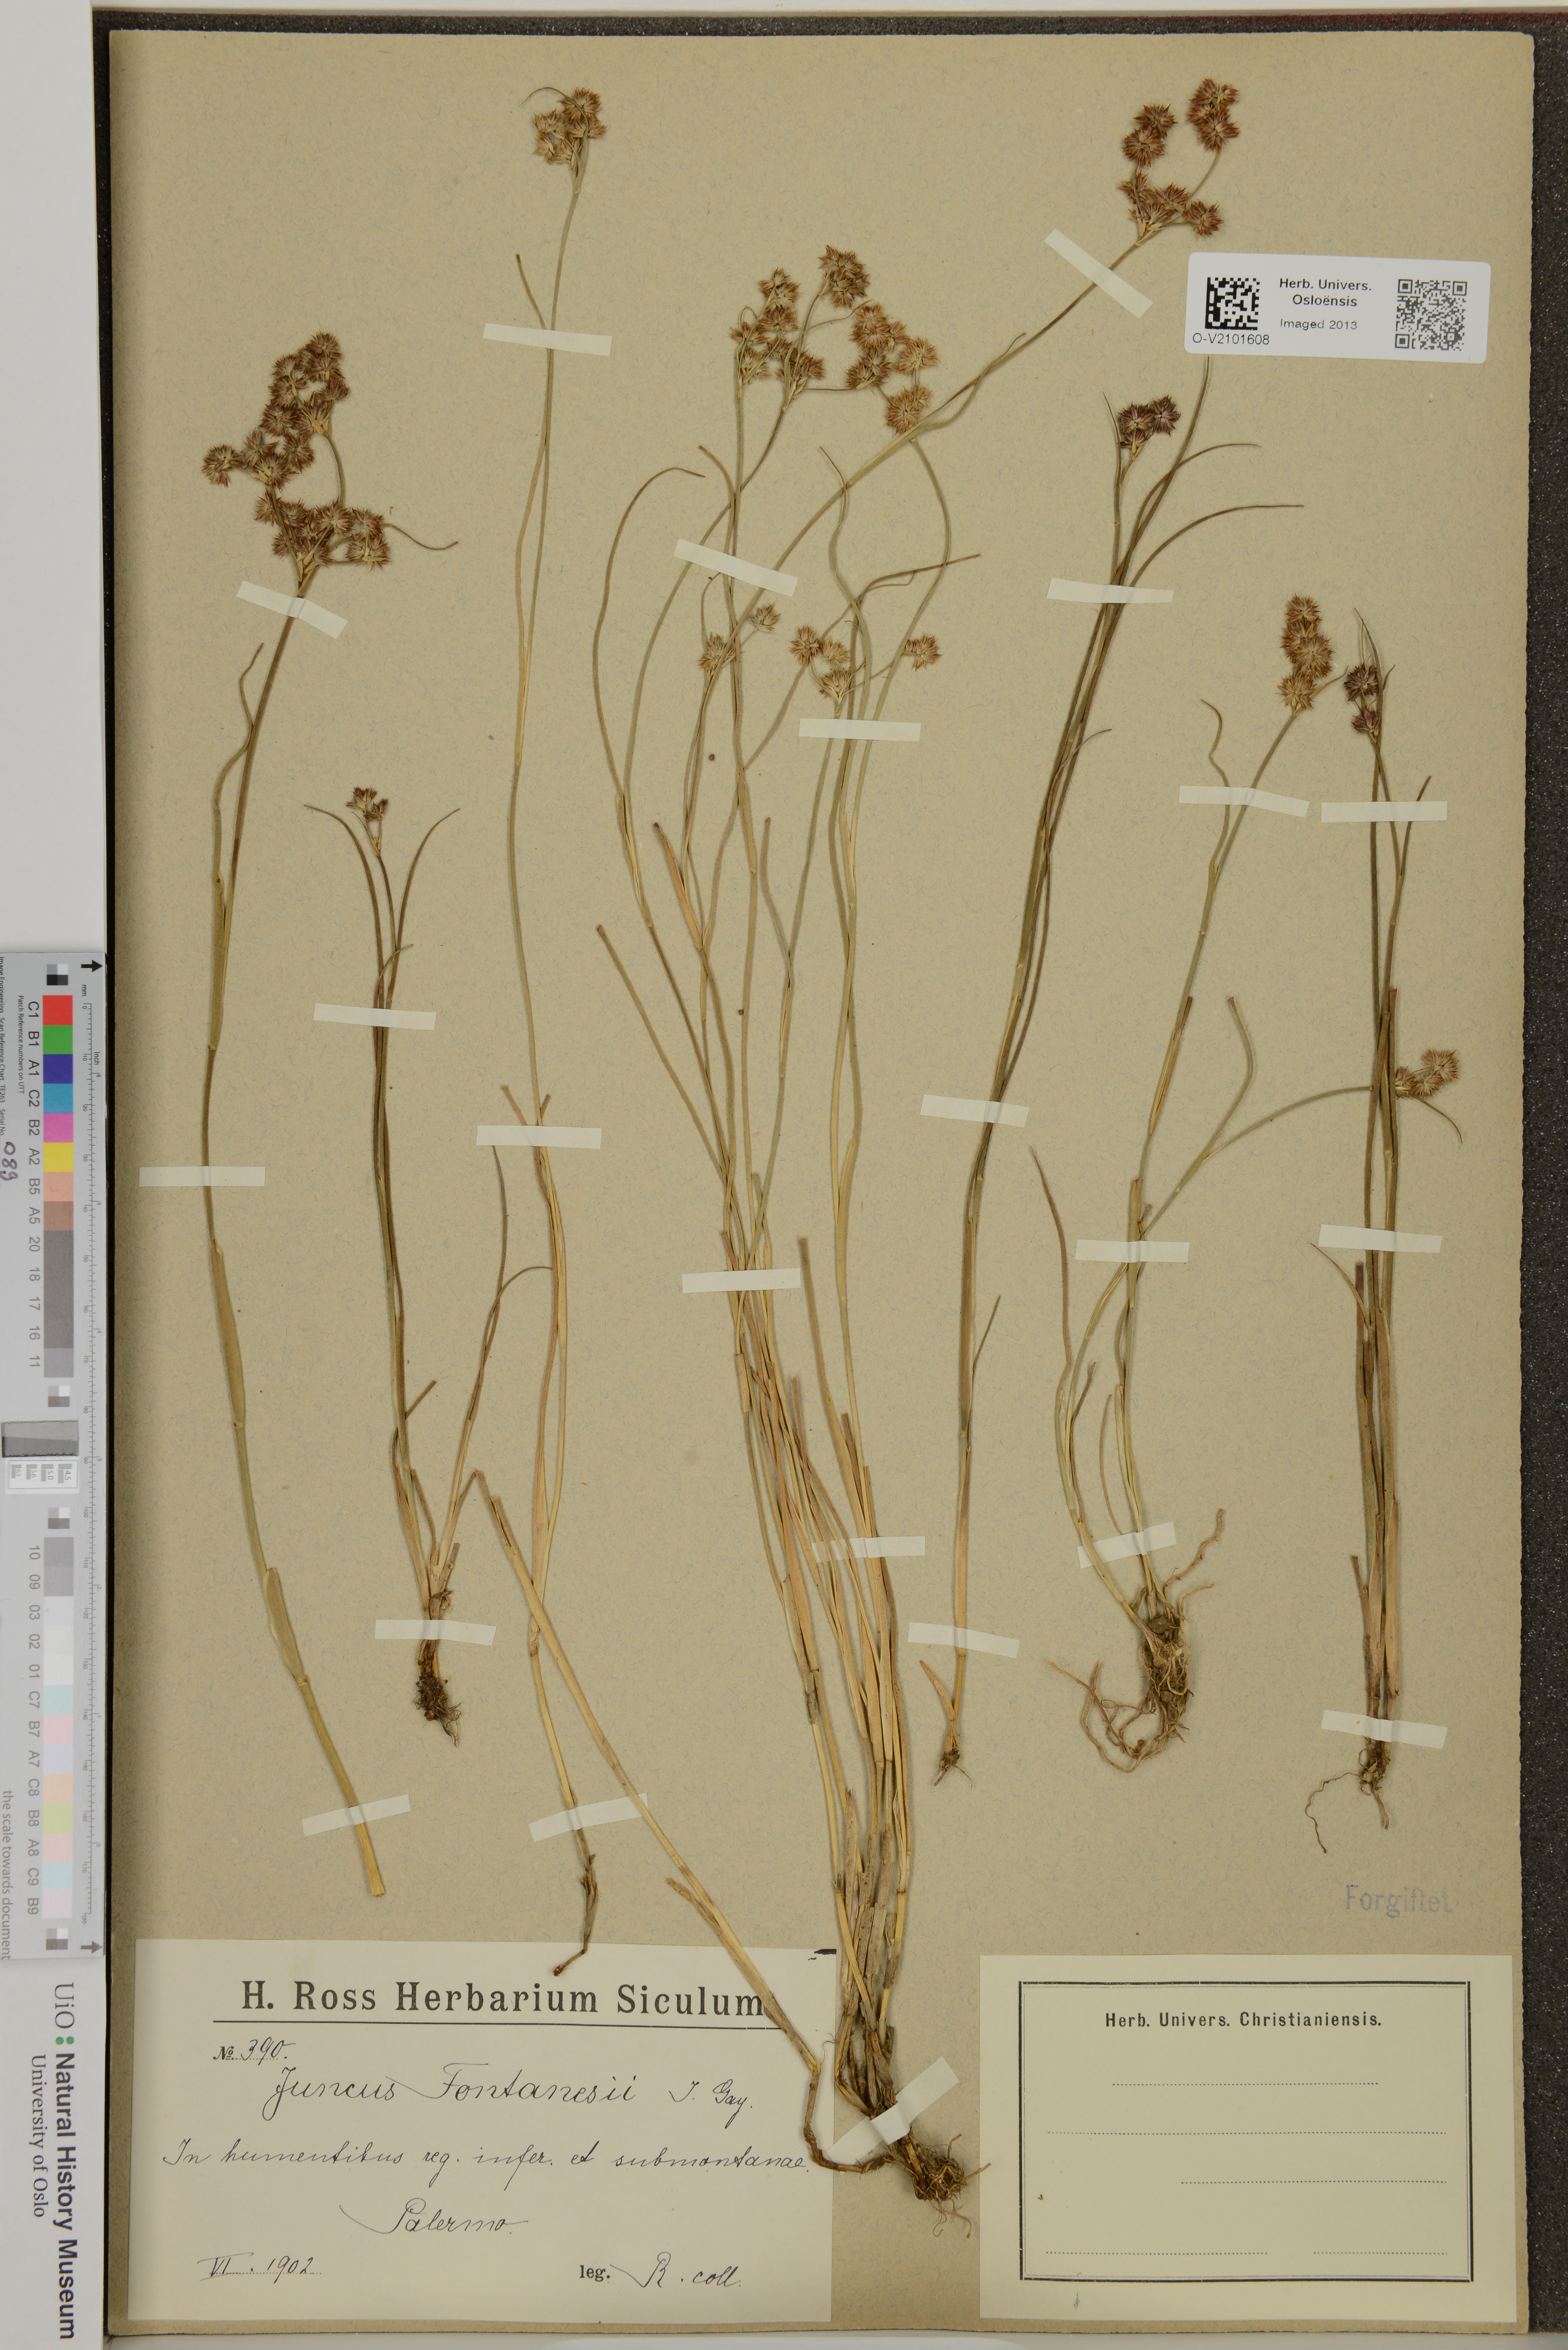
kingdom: Plantae
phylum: Tracheophyta
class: Liliopsida
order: Poales
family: Juncaceae
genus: Juncus
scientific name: Juncus fontanesii
